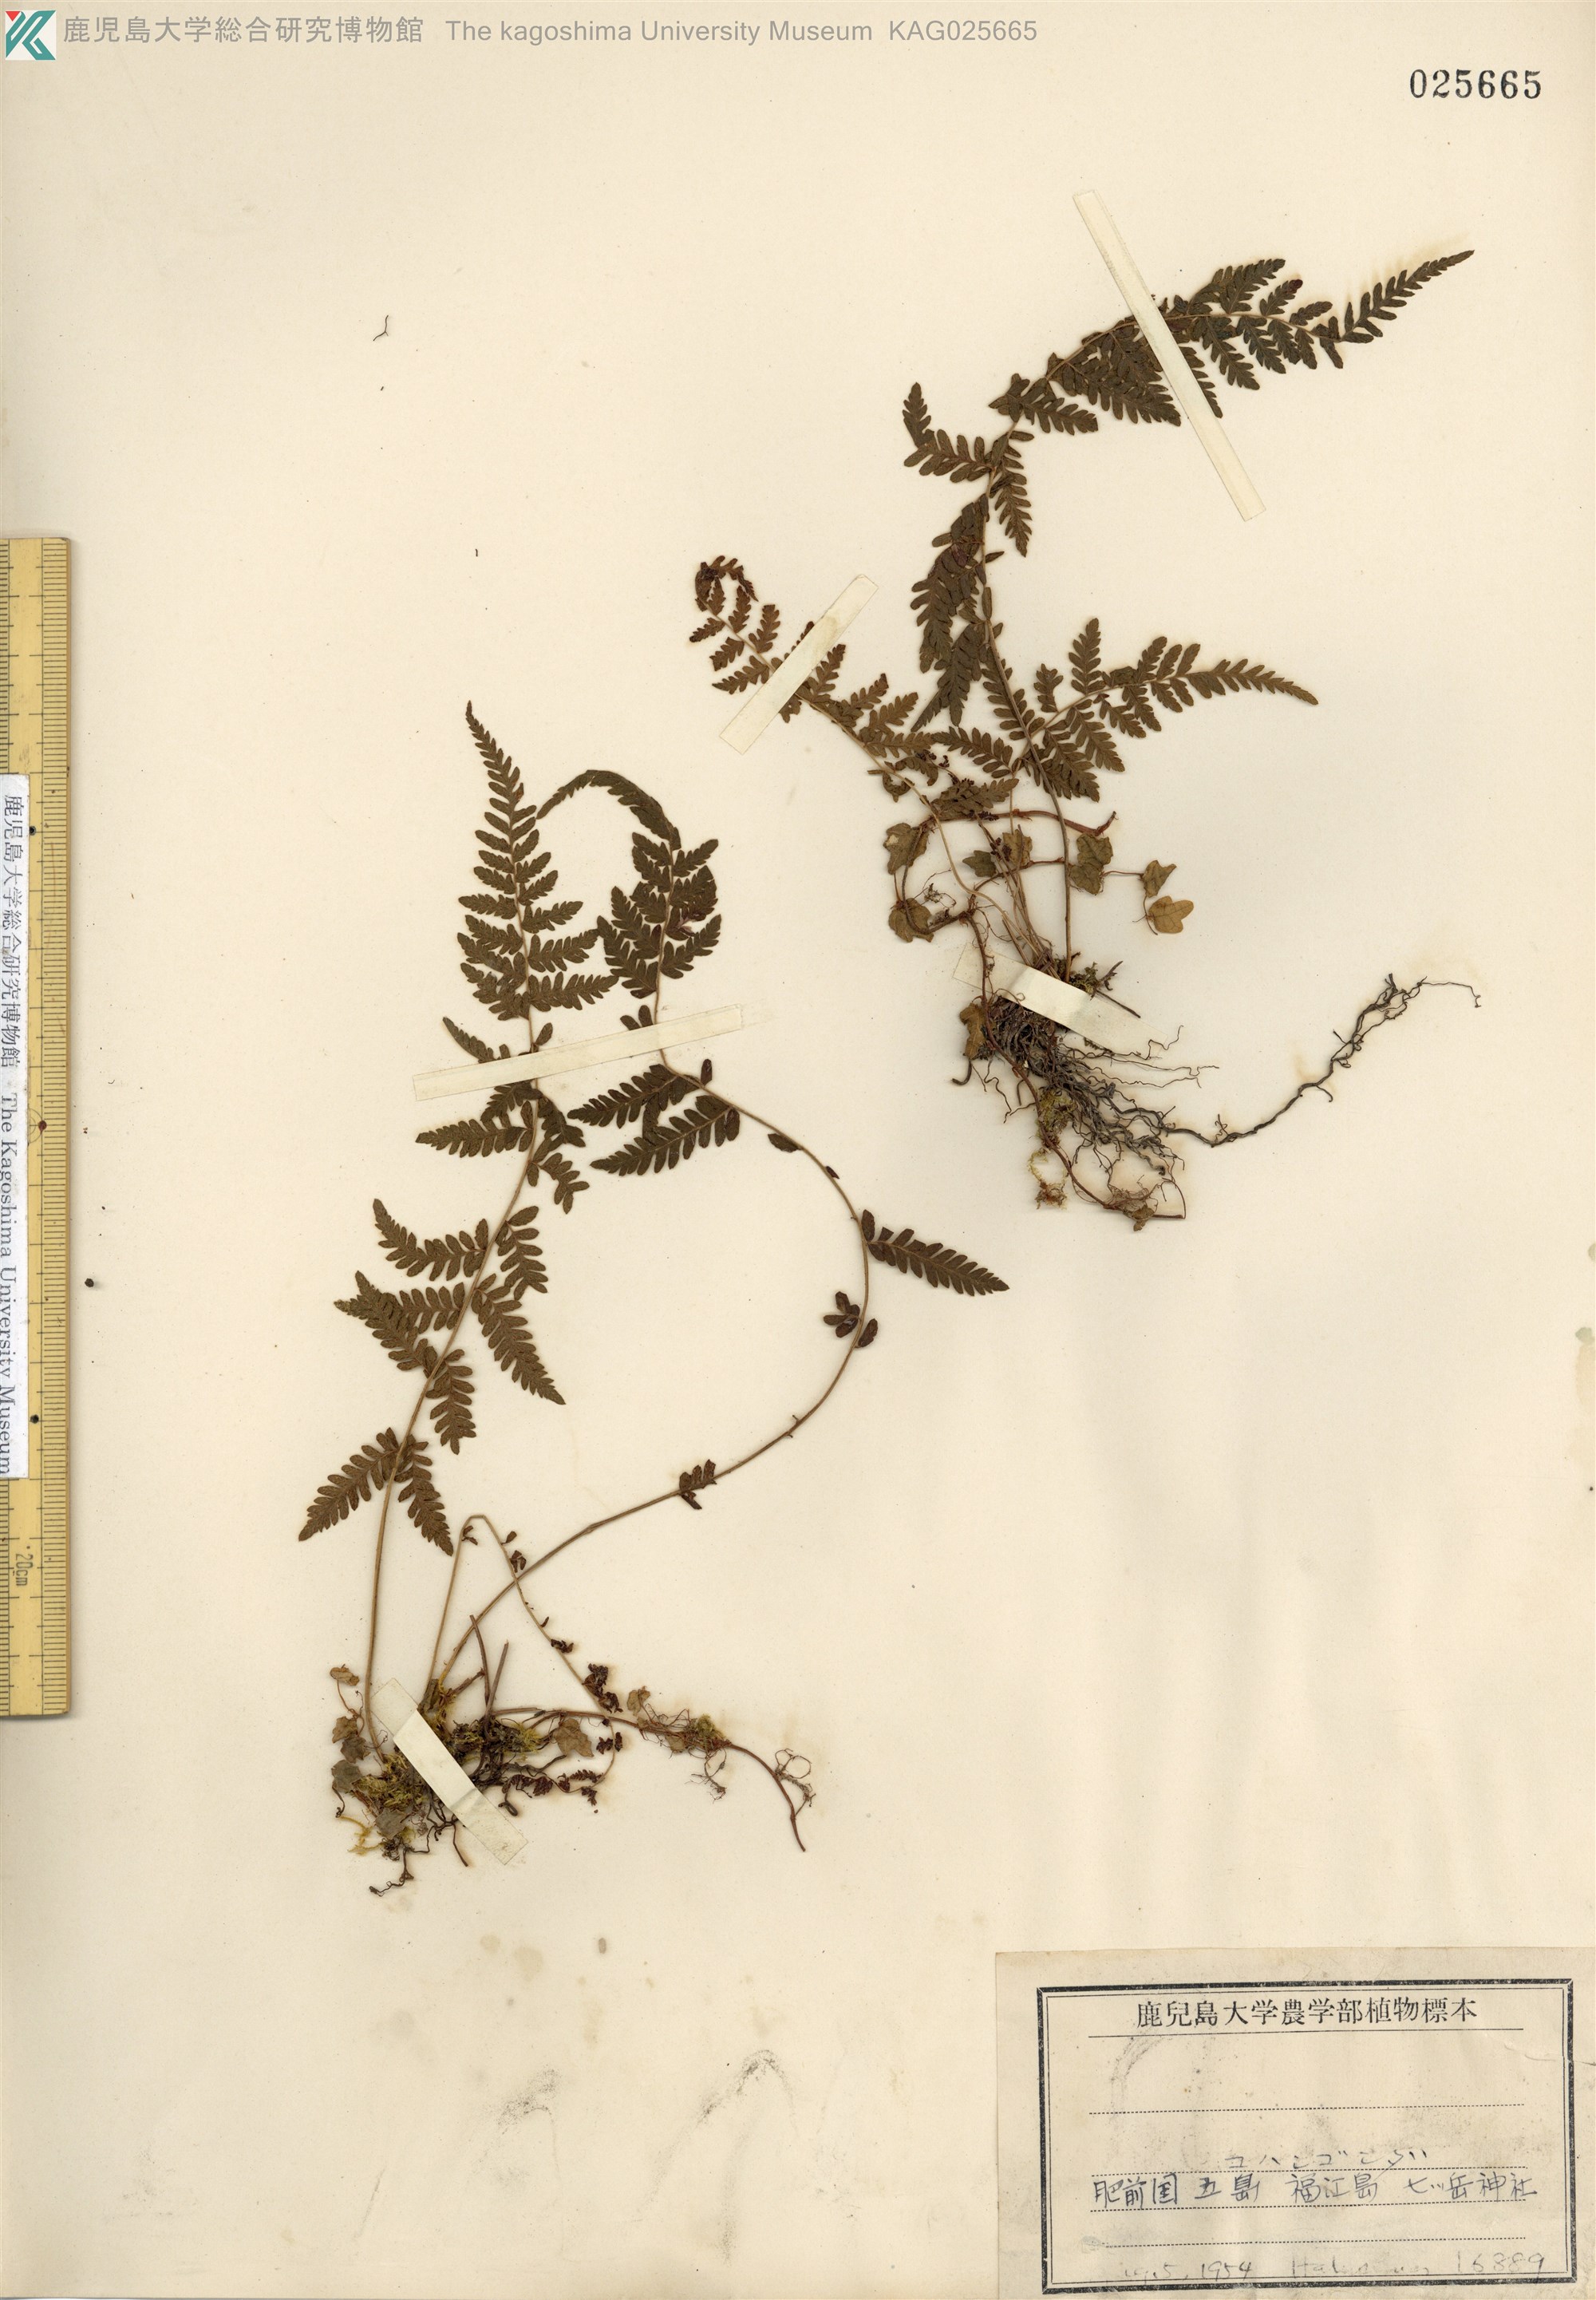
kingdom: Plantae
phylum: Tracheophyta
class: Polypodiopsida
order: Polypodiales
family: Thelypteridaceae
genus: Amauropelta
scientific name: Amauropelta angustifrons
